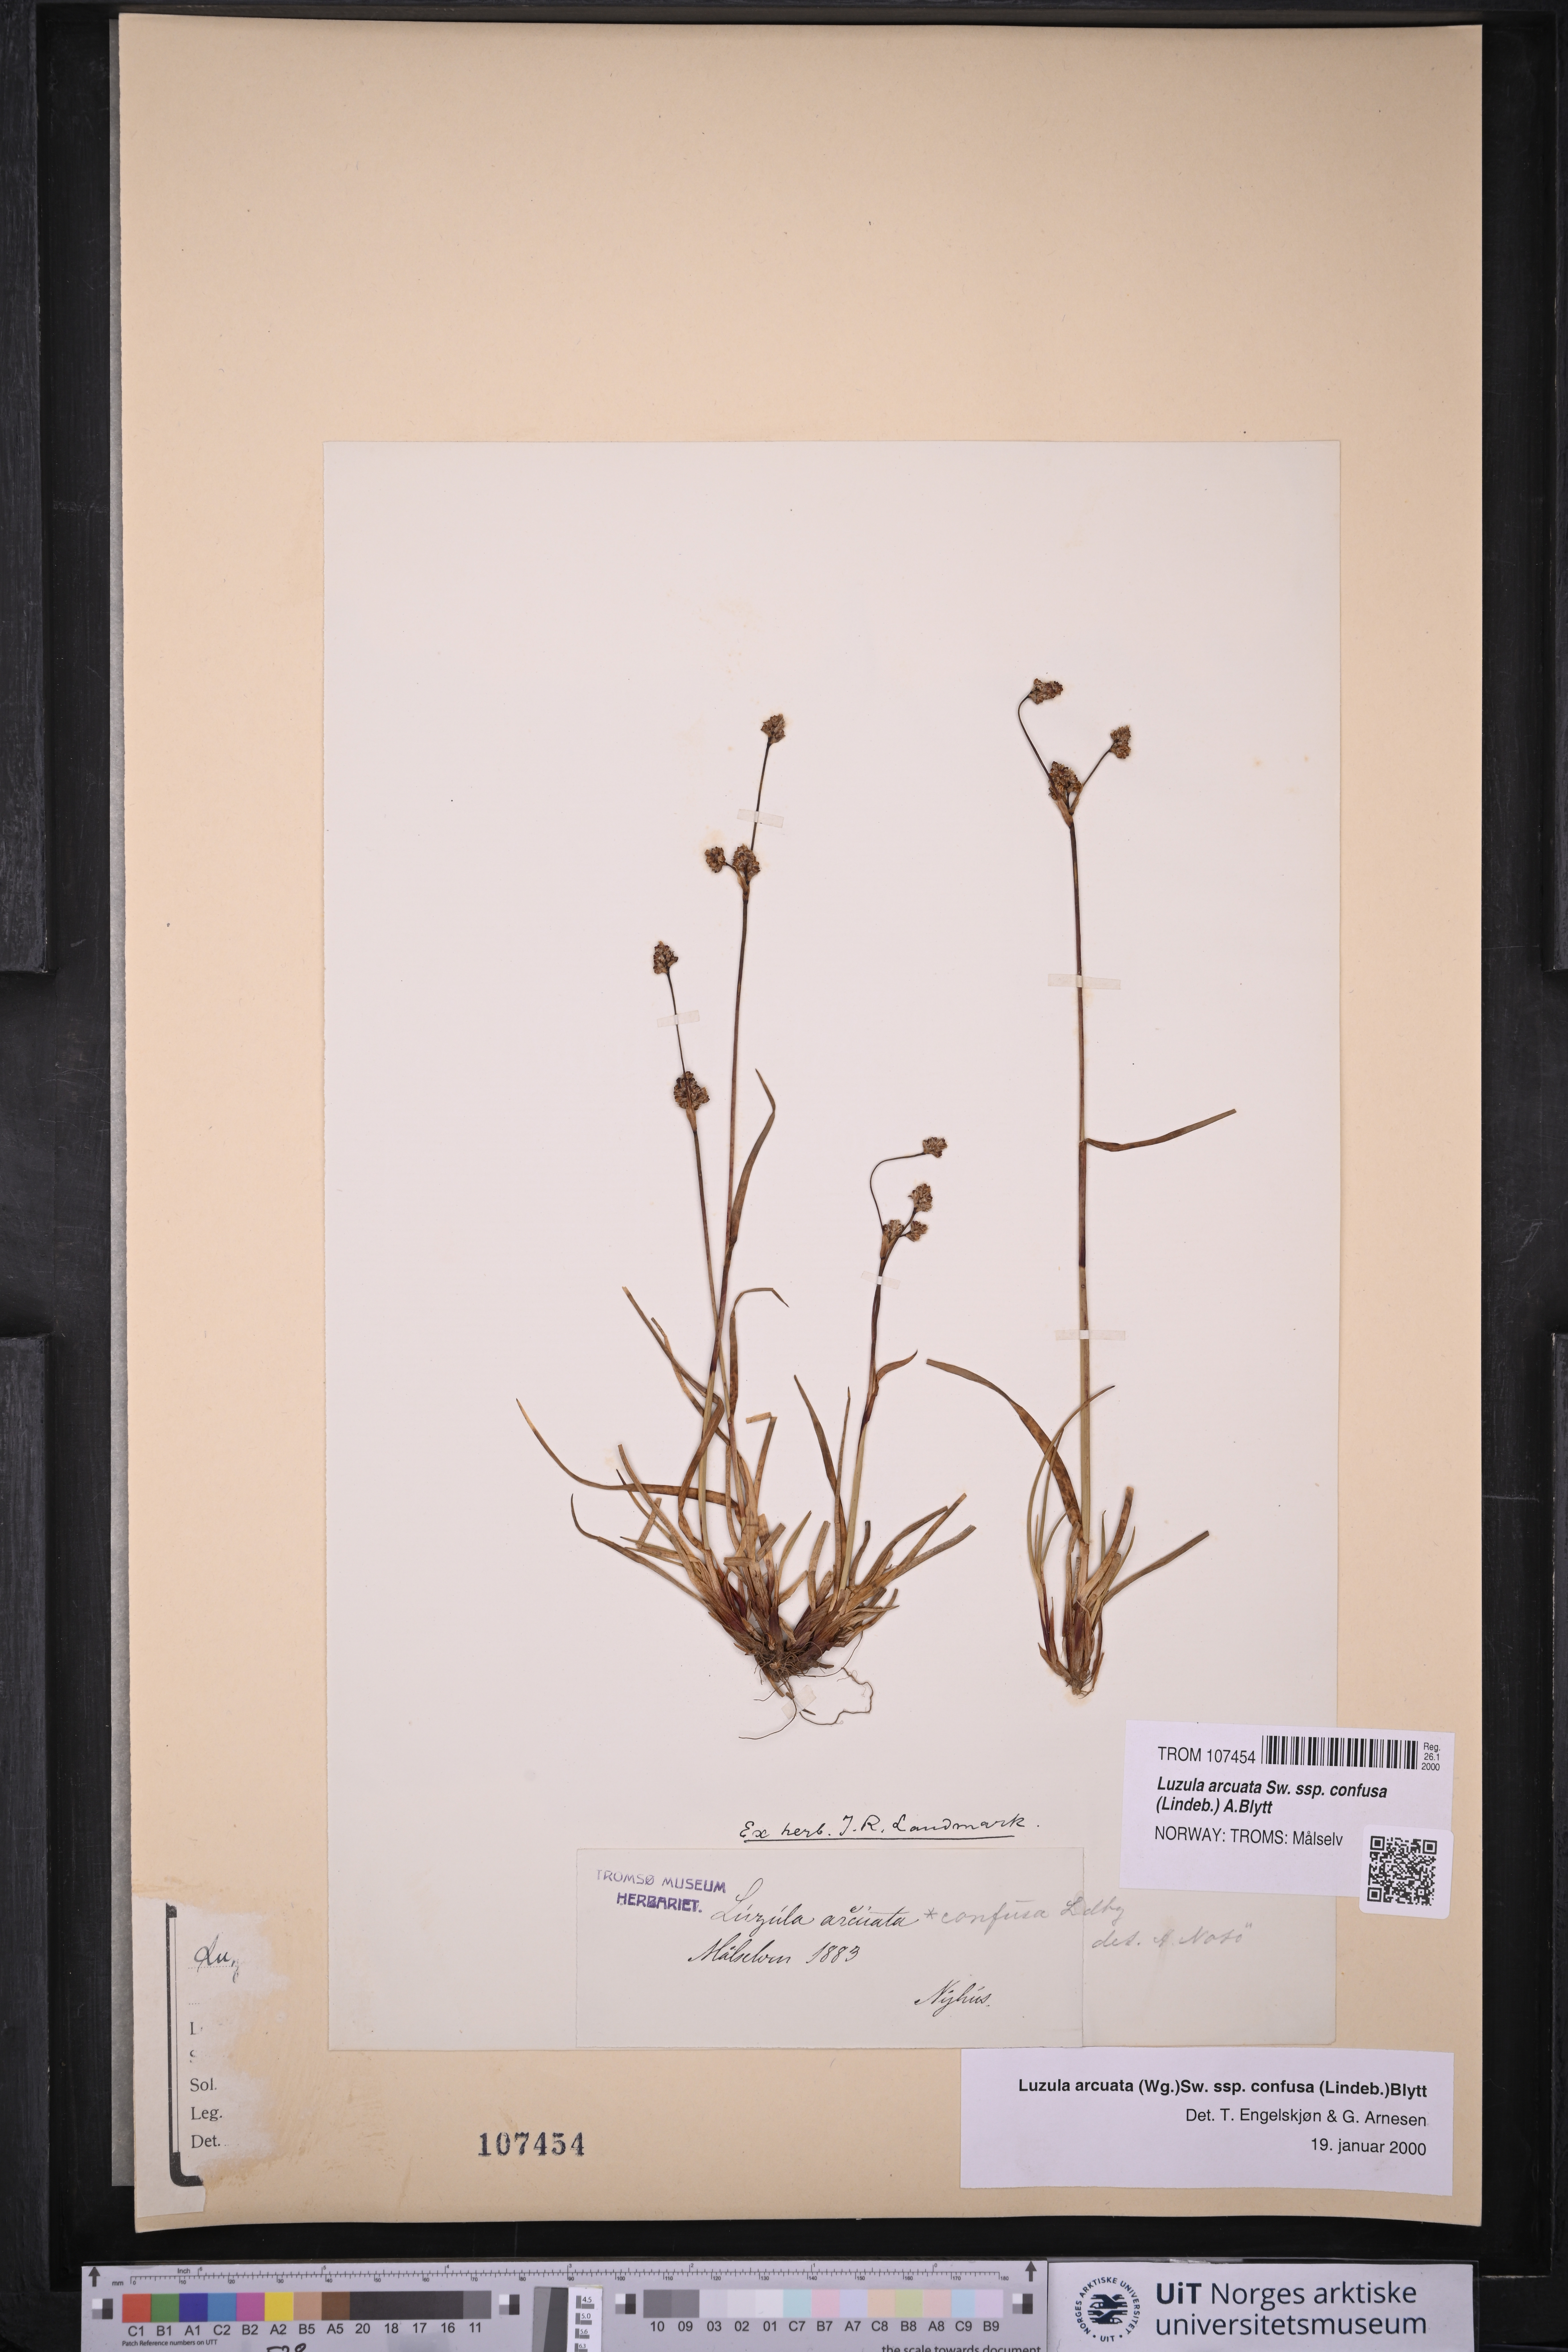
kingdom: Plantae
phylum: Tracheophyta
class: Liliopsida
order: Poales
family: Juncaceae
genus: Luzula
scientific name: Luzula confusa
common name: Northern wood rush
